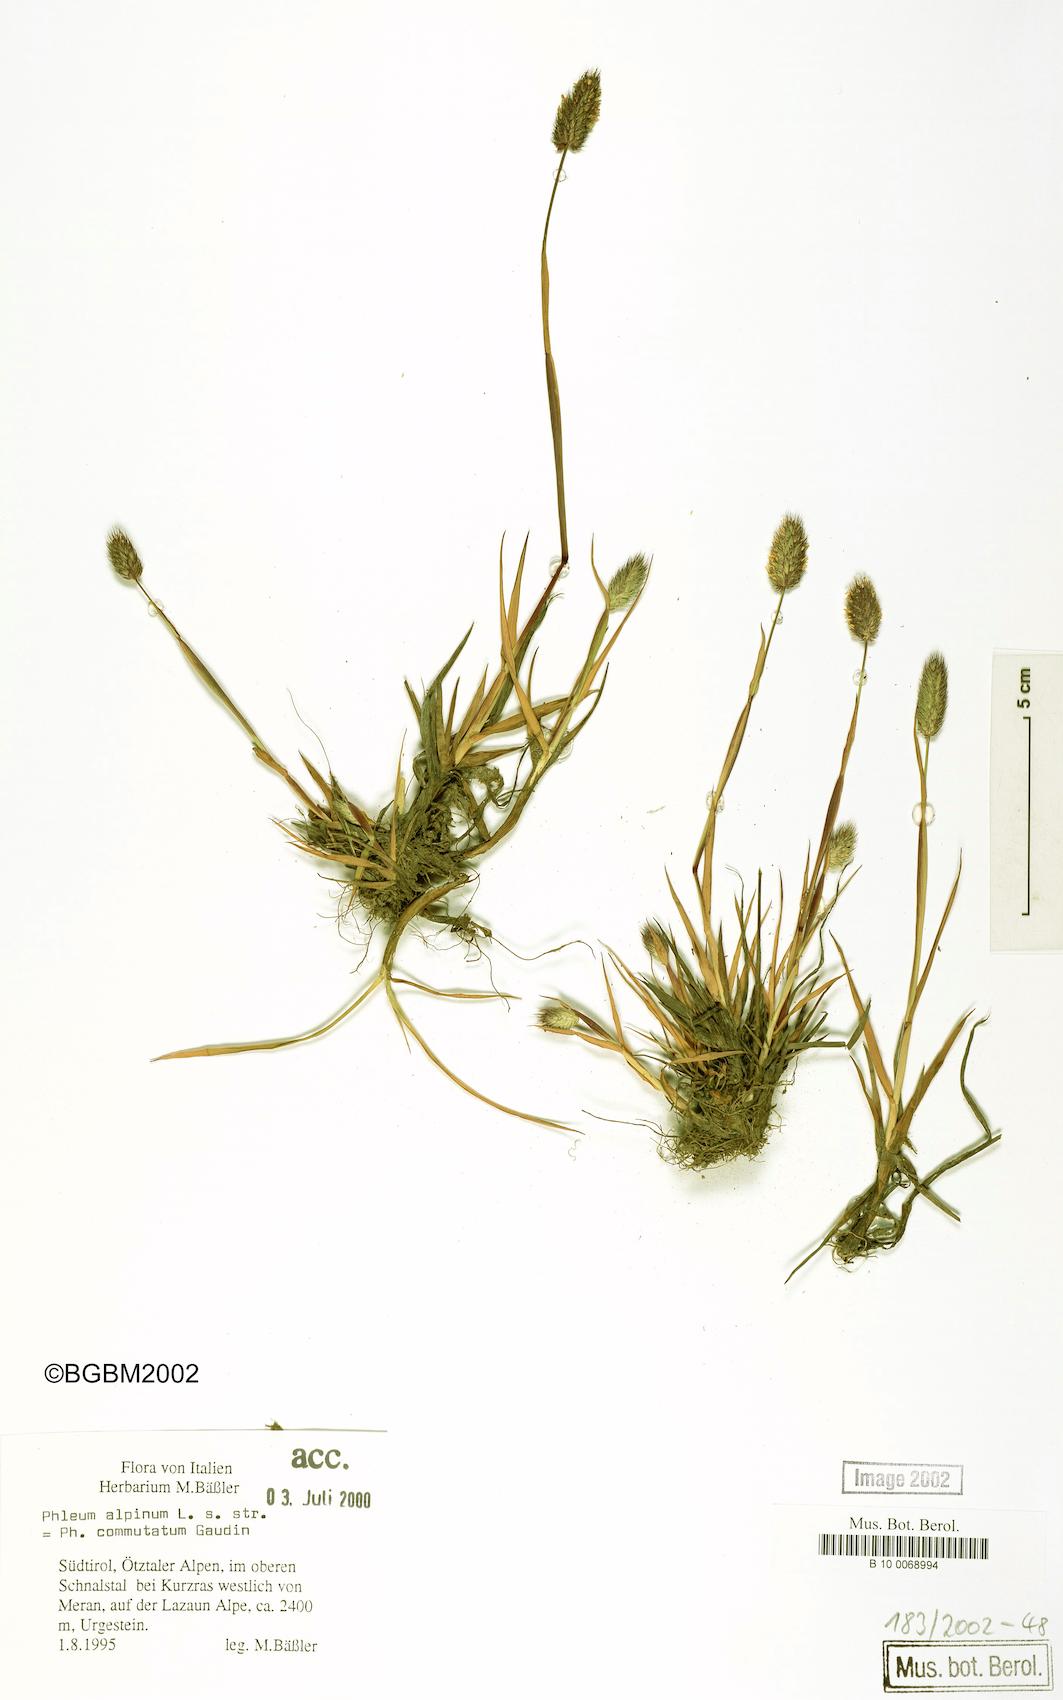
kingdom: Plantae
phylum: Tracheophyta
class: Liliopsida
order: Poales
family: Poaceae
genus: Phleum
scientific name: Phleum alpinum
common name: Alpine cat's-tail
